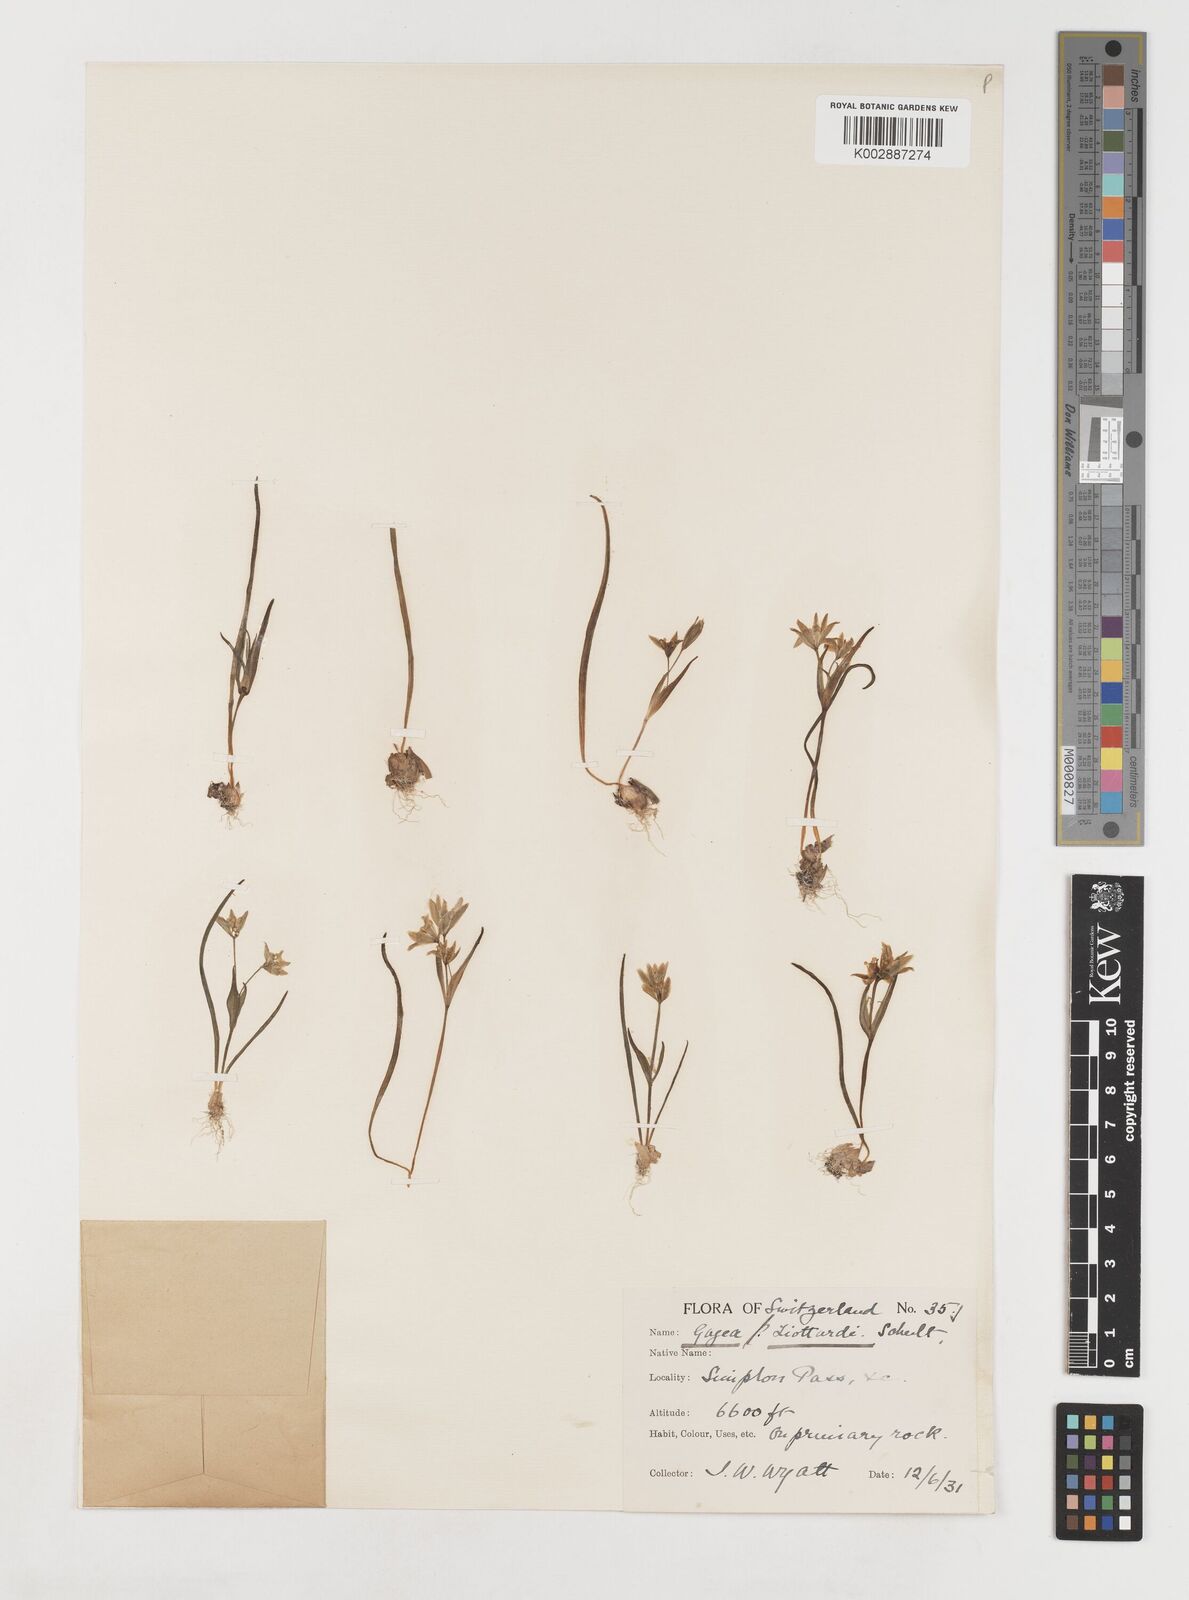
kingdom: Plantae
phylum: Tracheophyta
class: Liliopsida
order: Liliales
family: Liliaceae
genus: Gagea
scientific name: Gagea bohemica
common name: Early star-of-bethlehem
